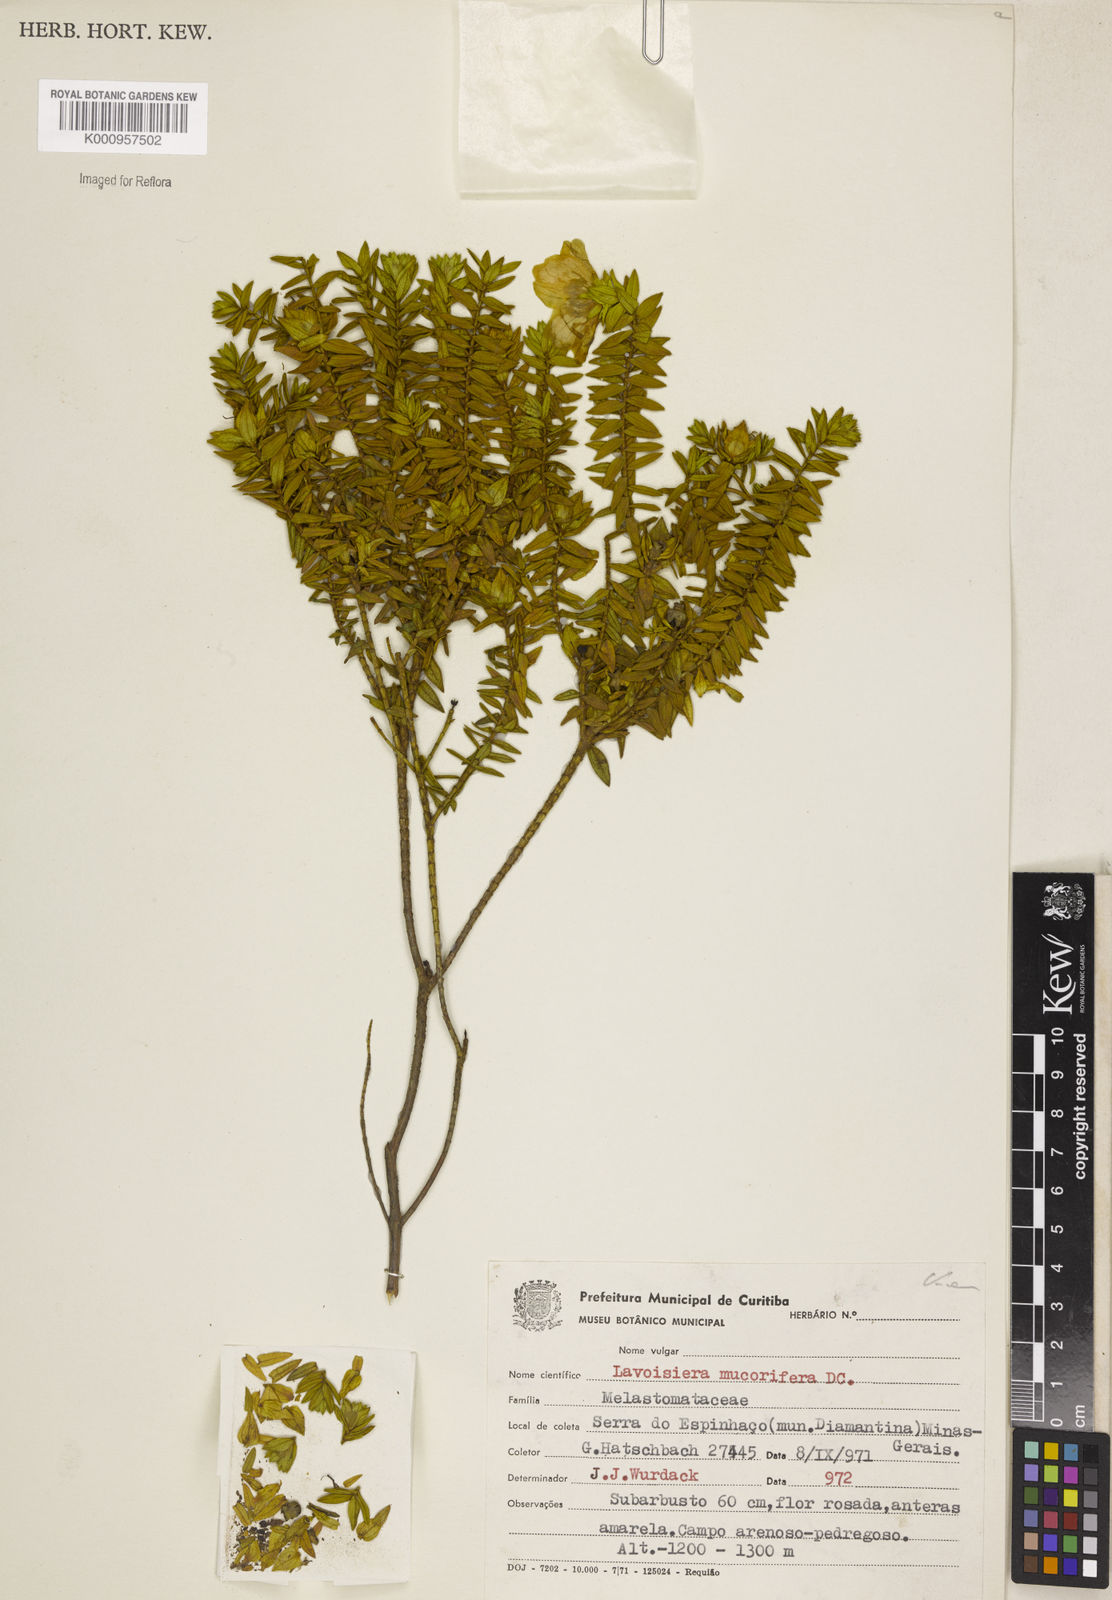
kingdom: Plantae
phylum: Tracheophyta
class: Magnoliopsida
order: Myrtales
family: Melastomataceae
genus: Microlicia
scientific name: Microlicia mucorifera
